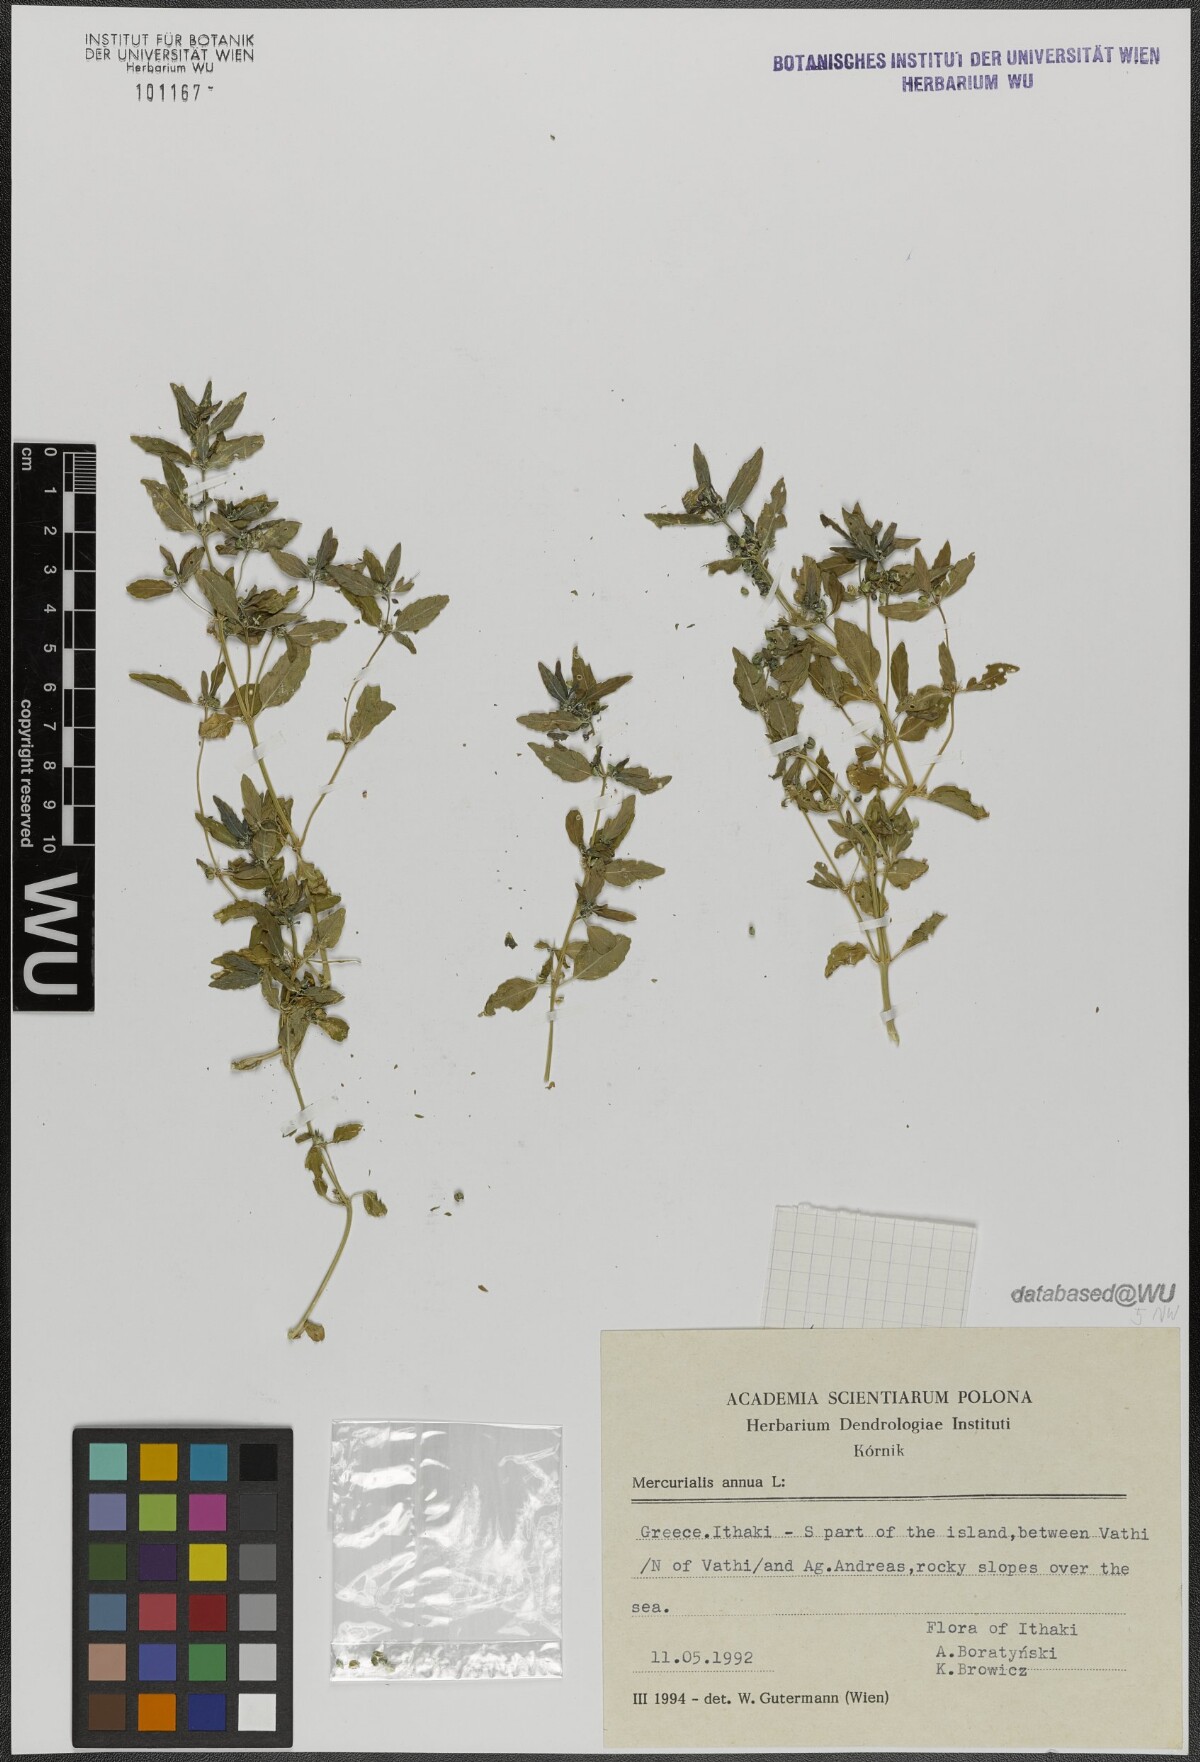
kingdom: Plantae
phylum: Tracheophyta
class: Magnoliopsida
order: Malpighiales
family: Euphorbiaceae
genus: Mercurialis
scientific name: Mercurialis annua
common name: Annual mercury
